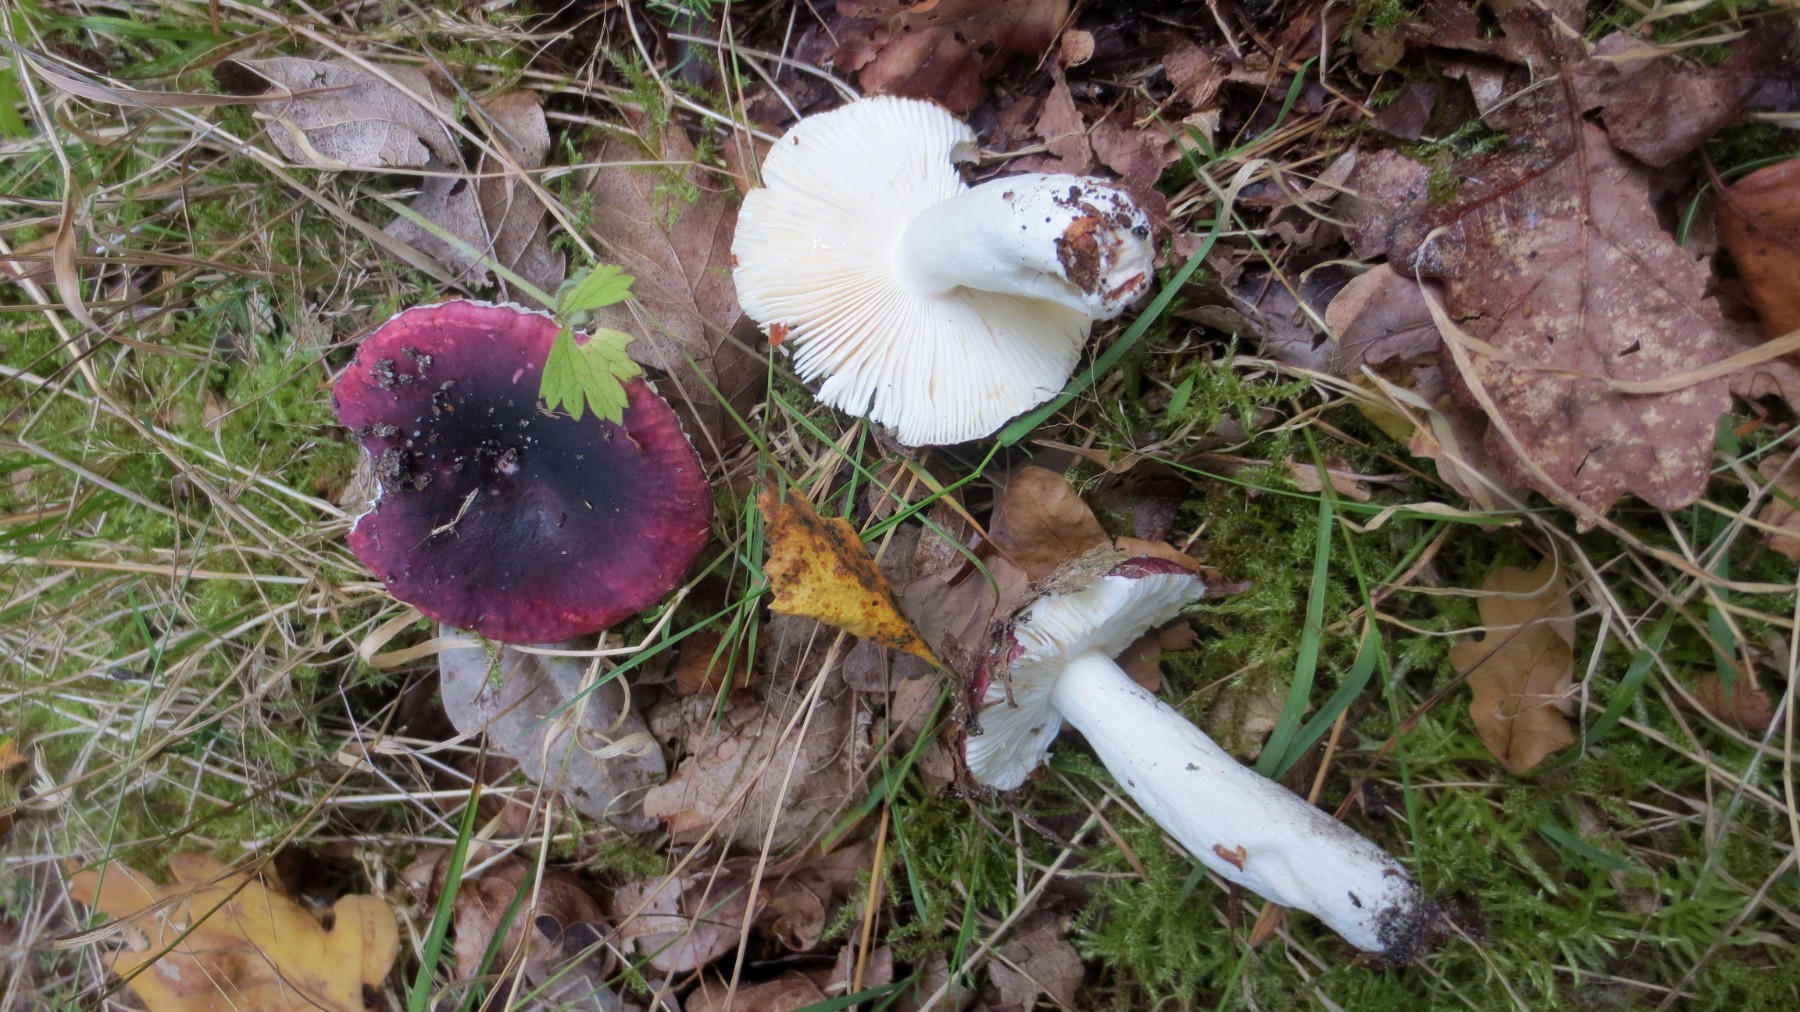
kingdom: Fungi
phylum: Basidiomycota
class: Agaricomycetes
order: Russulales
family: Russulaceae
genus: Russula
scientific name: Russula atropurpurea
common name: purpurbroget skørhat
